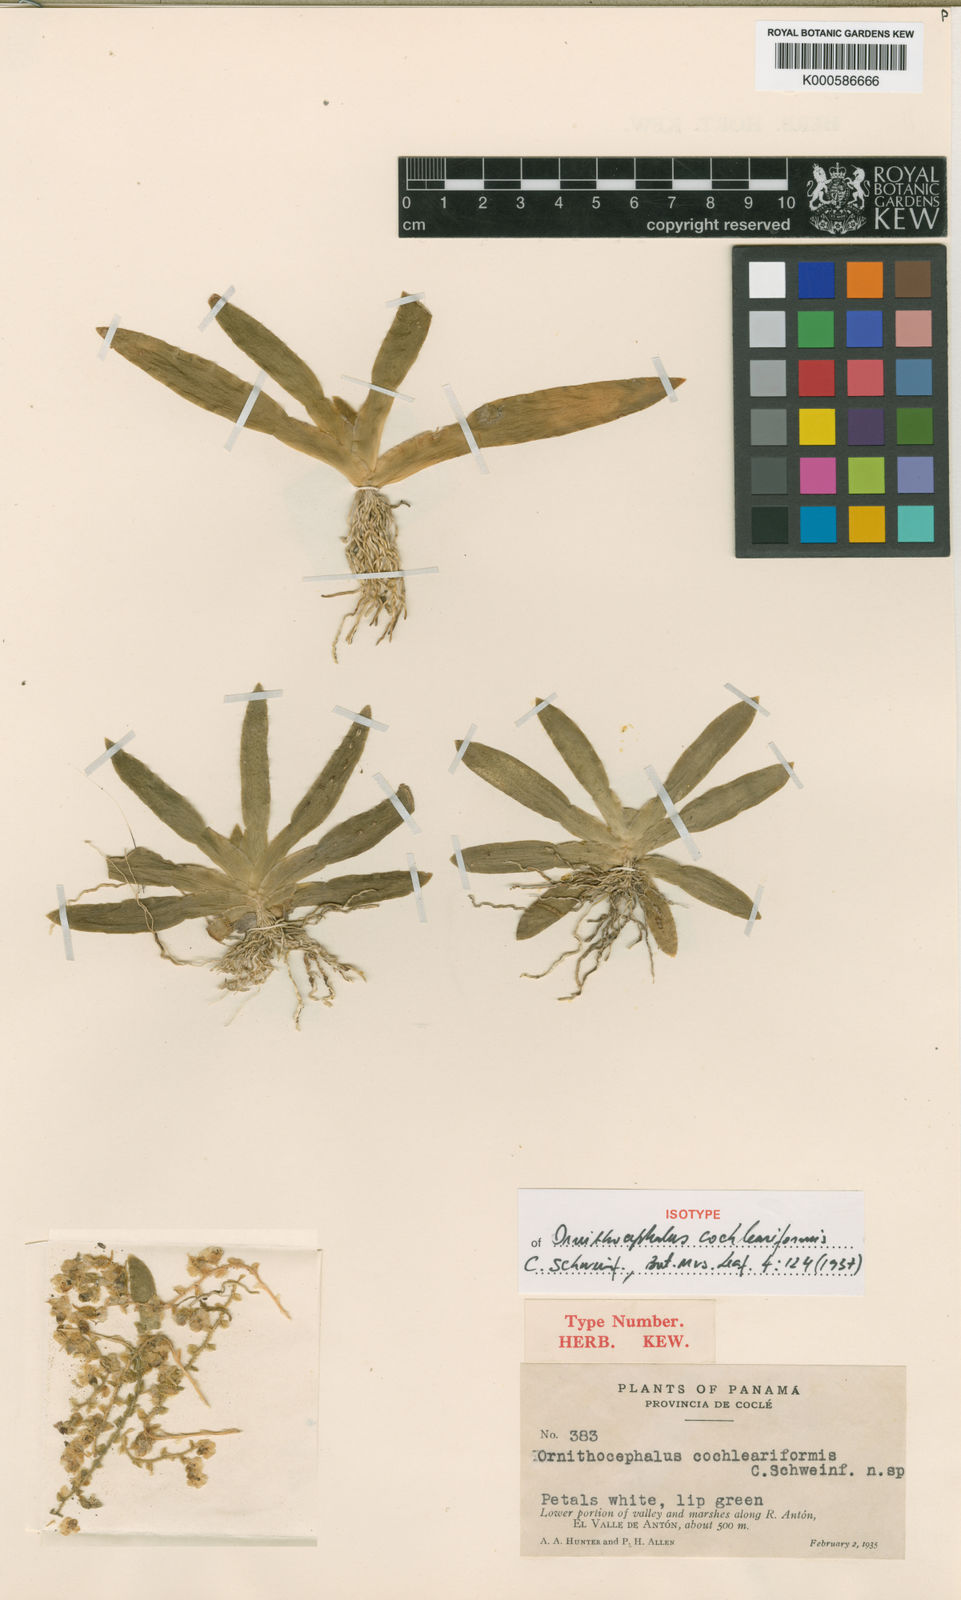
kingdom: Plantae
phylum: Tracheophyta
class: Liliopsida
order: Asparagales
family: Orchidaceae
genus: Ornithocephalus
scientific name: Ornithocephalus cochleariformis
